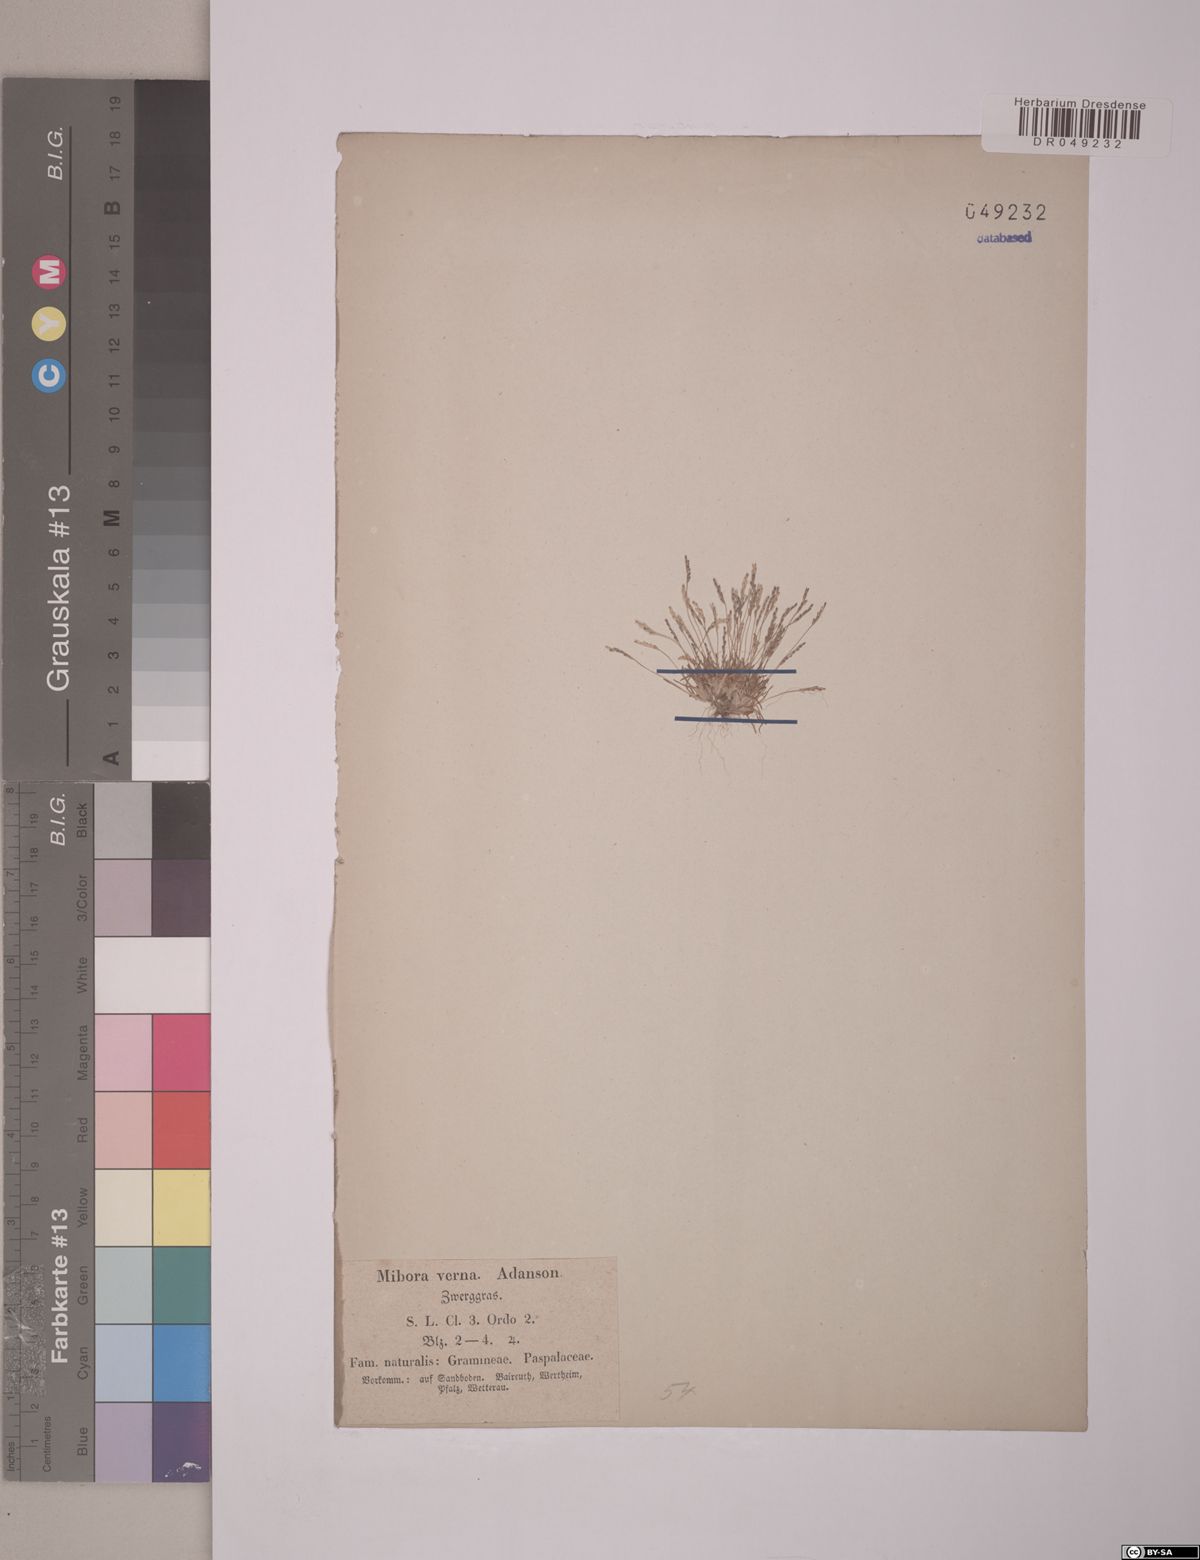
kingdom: Plantae
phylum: Tracheophyta
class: Liliopsida
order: Poales
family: Poaceae
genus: Mibora
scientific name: Mibora minima
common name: Early sand-grass
